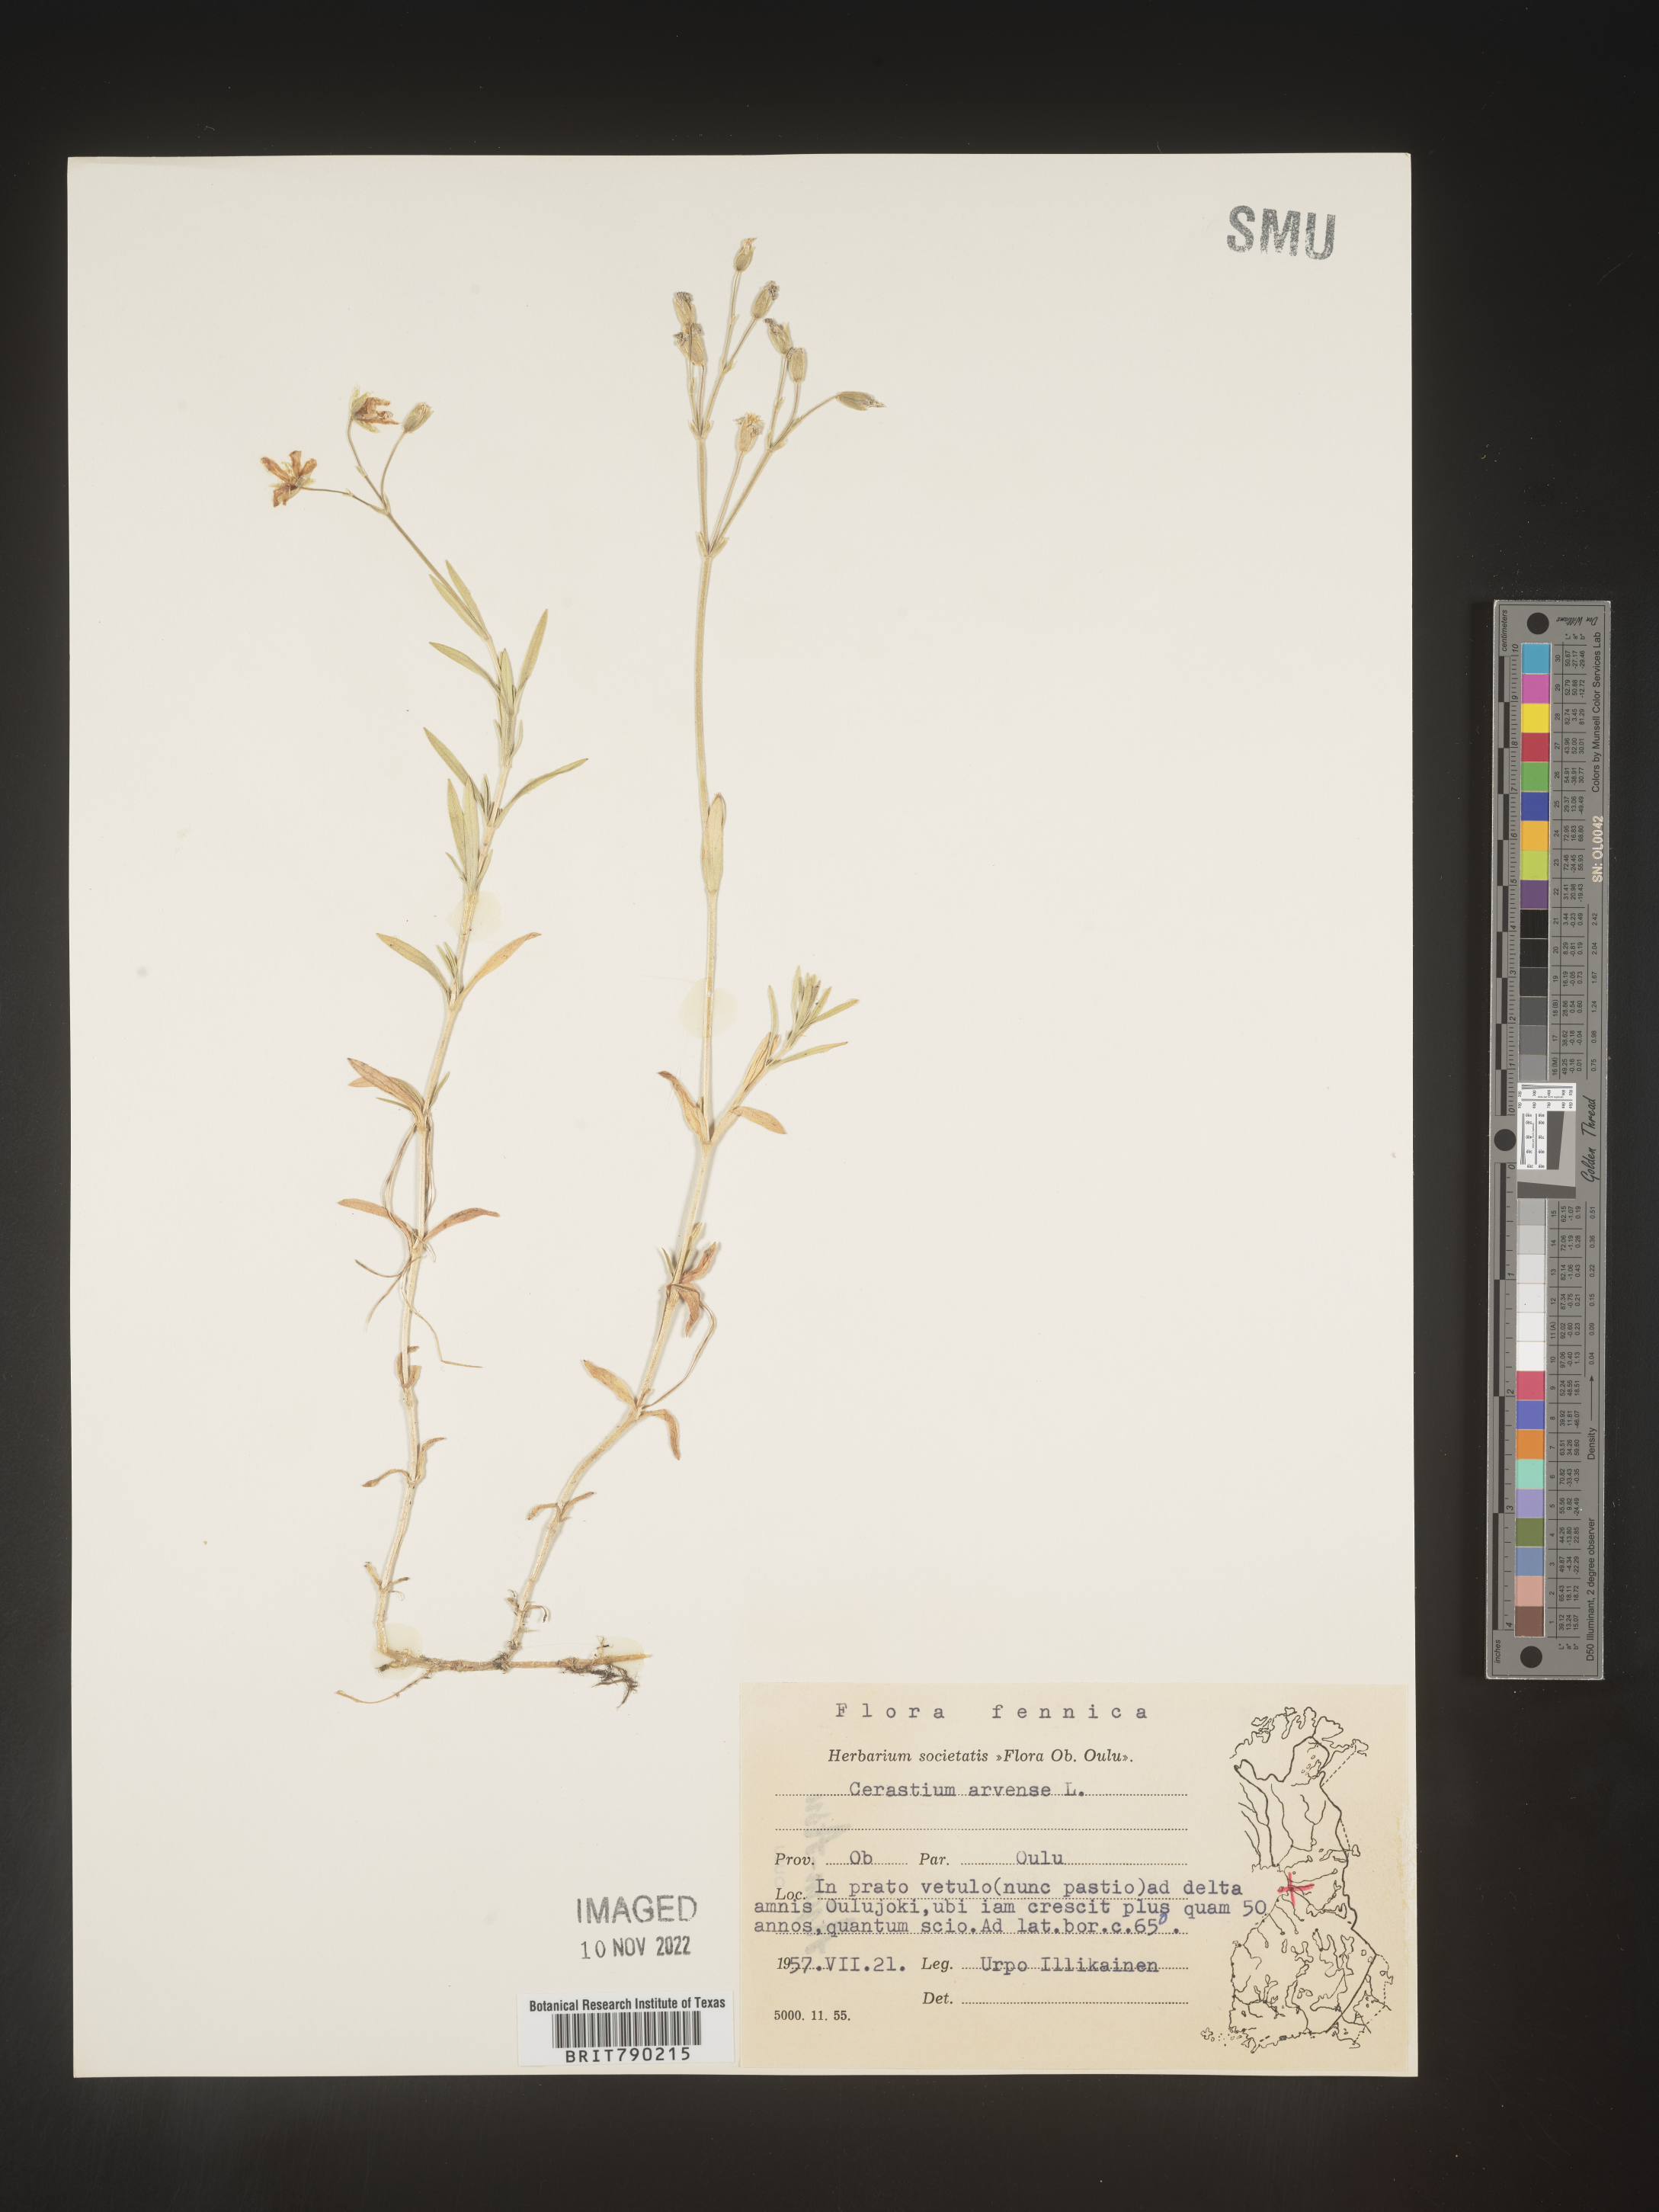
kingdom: Plantae
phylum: Tracheophyta
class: Magnoliopsida
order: Caryophyllales
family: Caryophyllaceae
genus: Cerastium
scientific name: Cerastium
